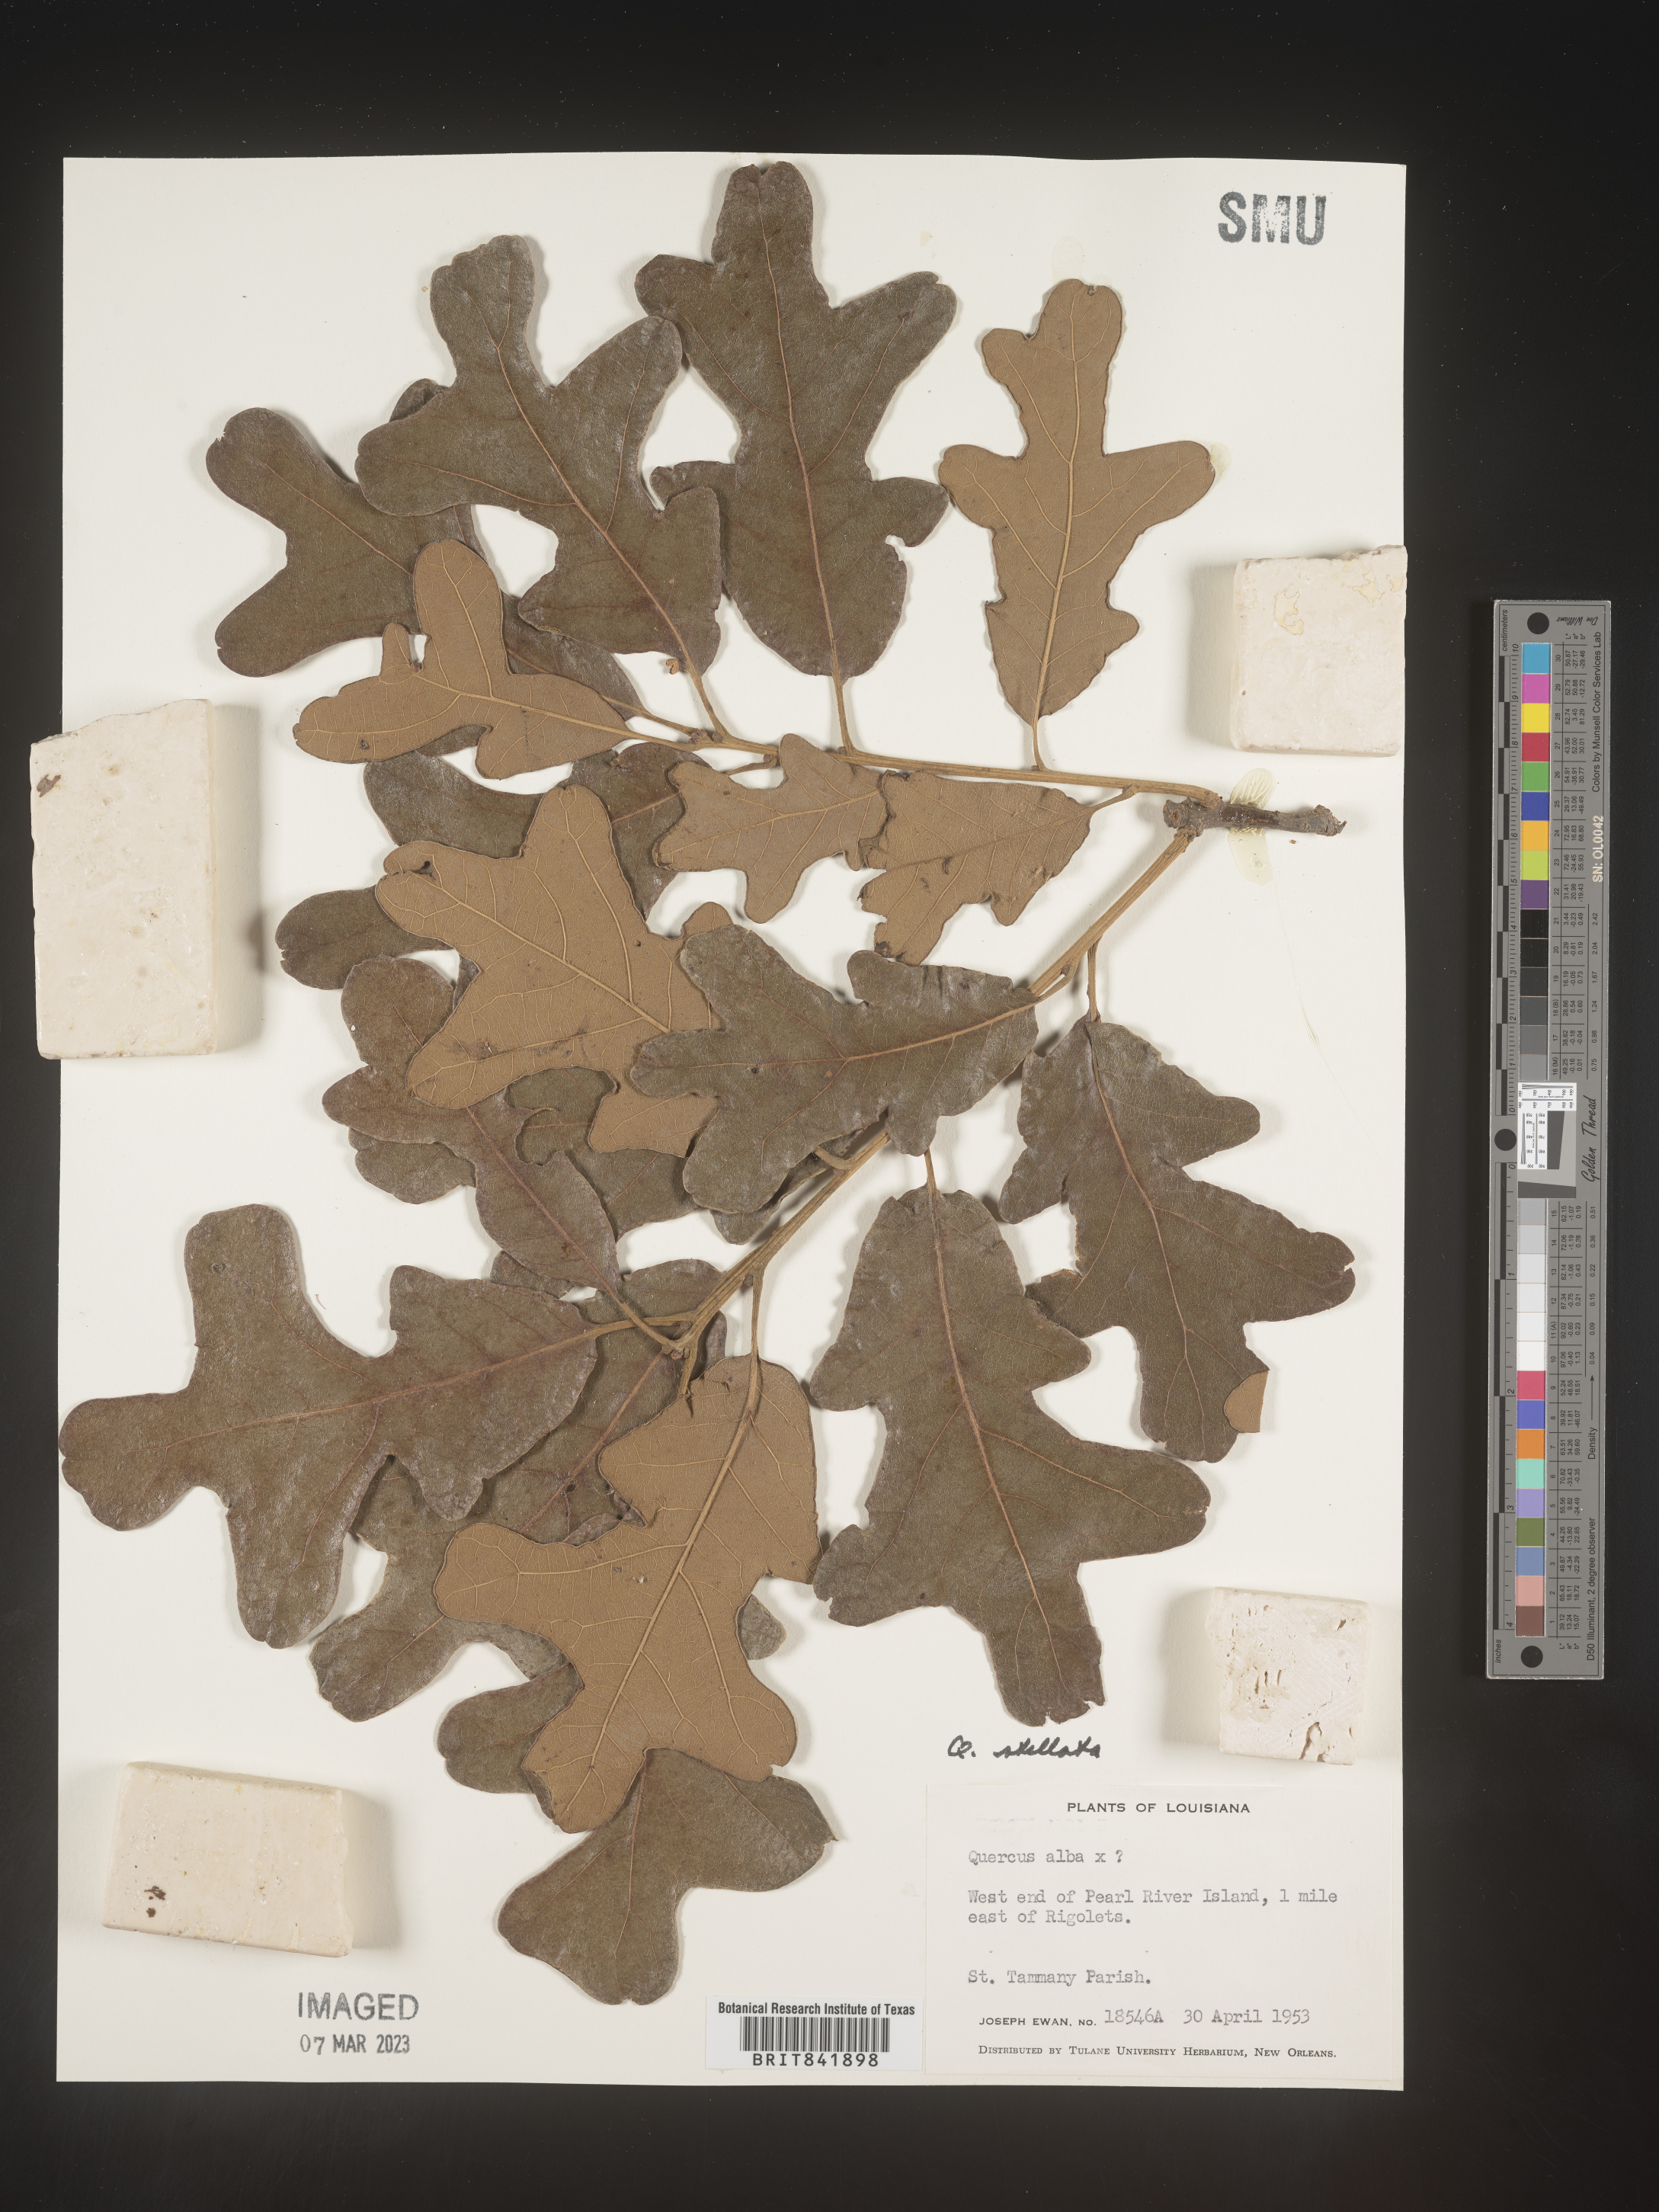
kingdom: Plantae
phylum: Tracheophyta
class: Magnoliopsida
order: Fagales
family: Fagaceae
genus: Quercus
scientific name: Quercus stellata
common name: Post oak
